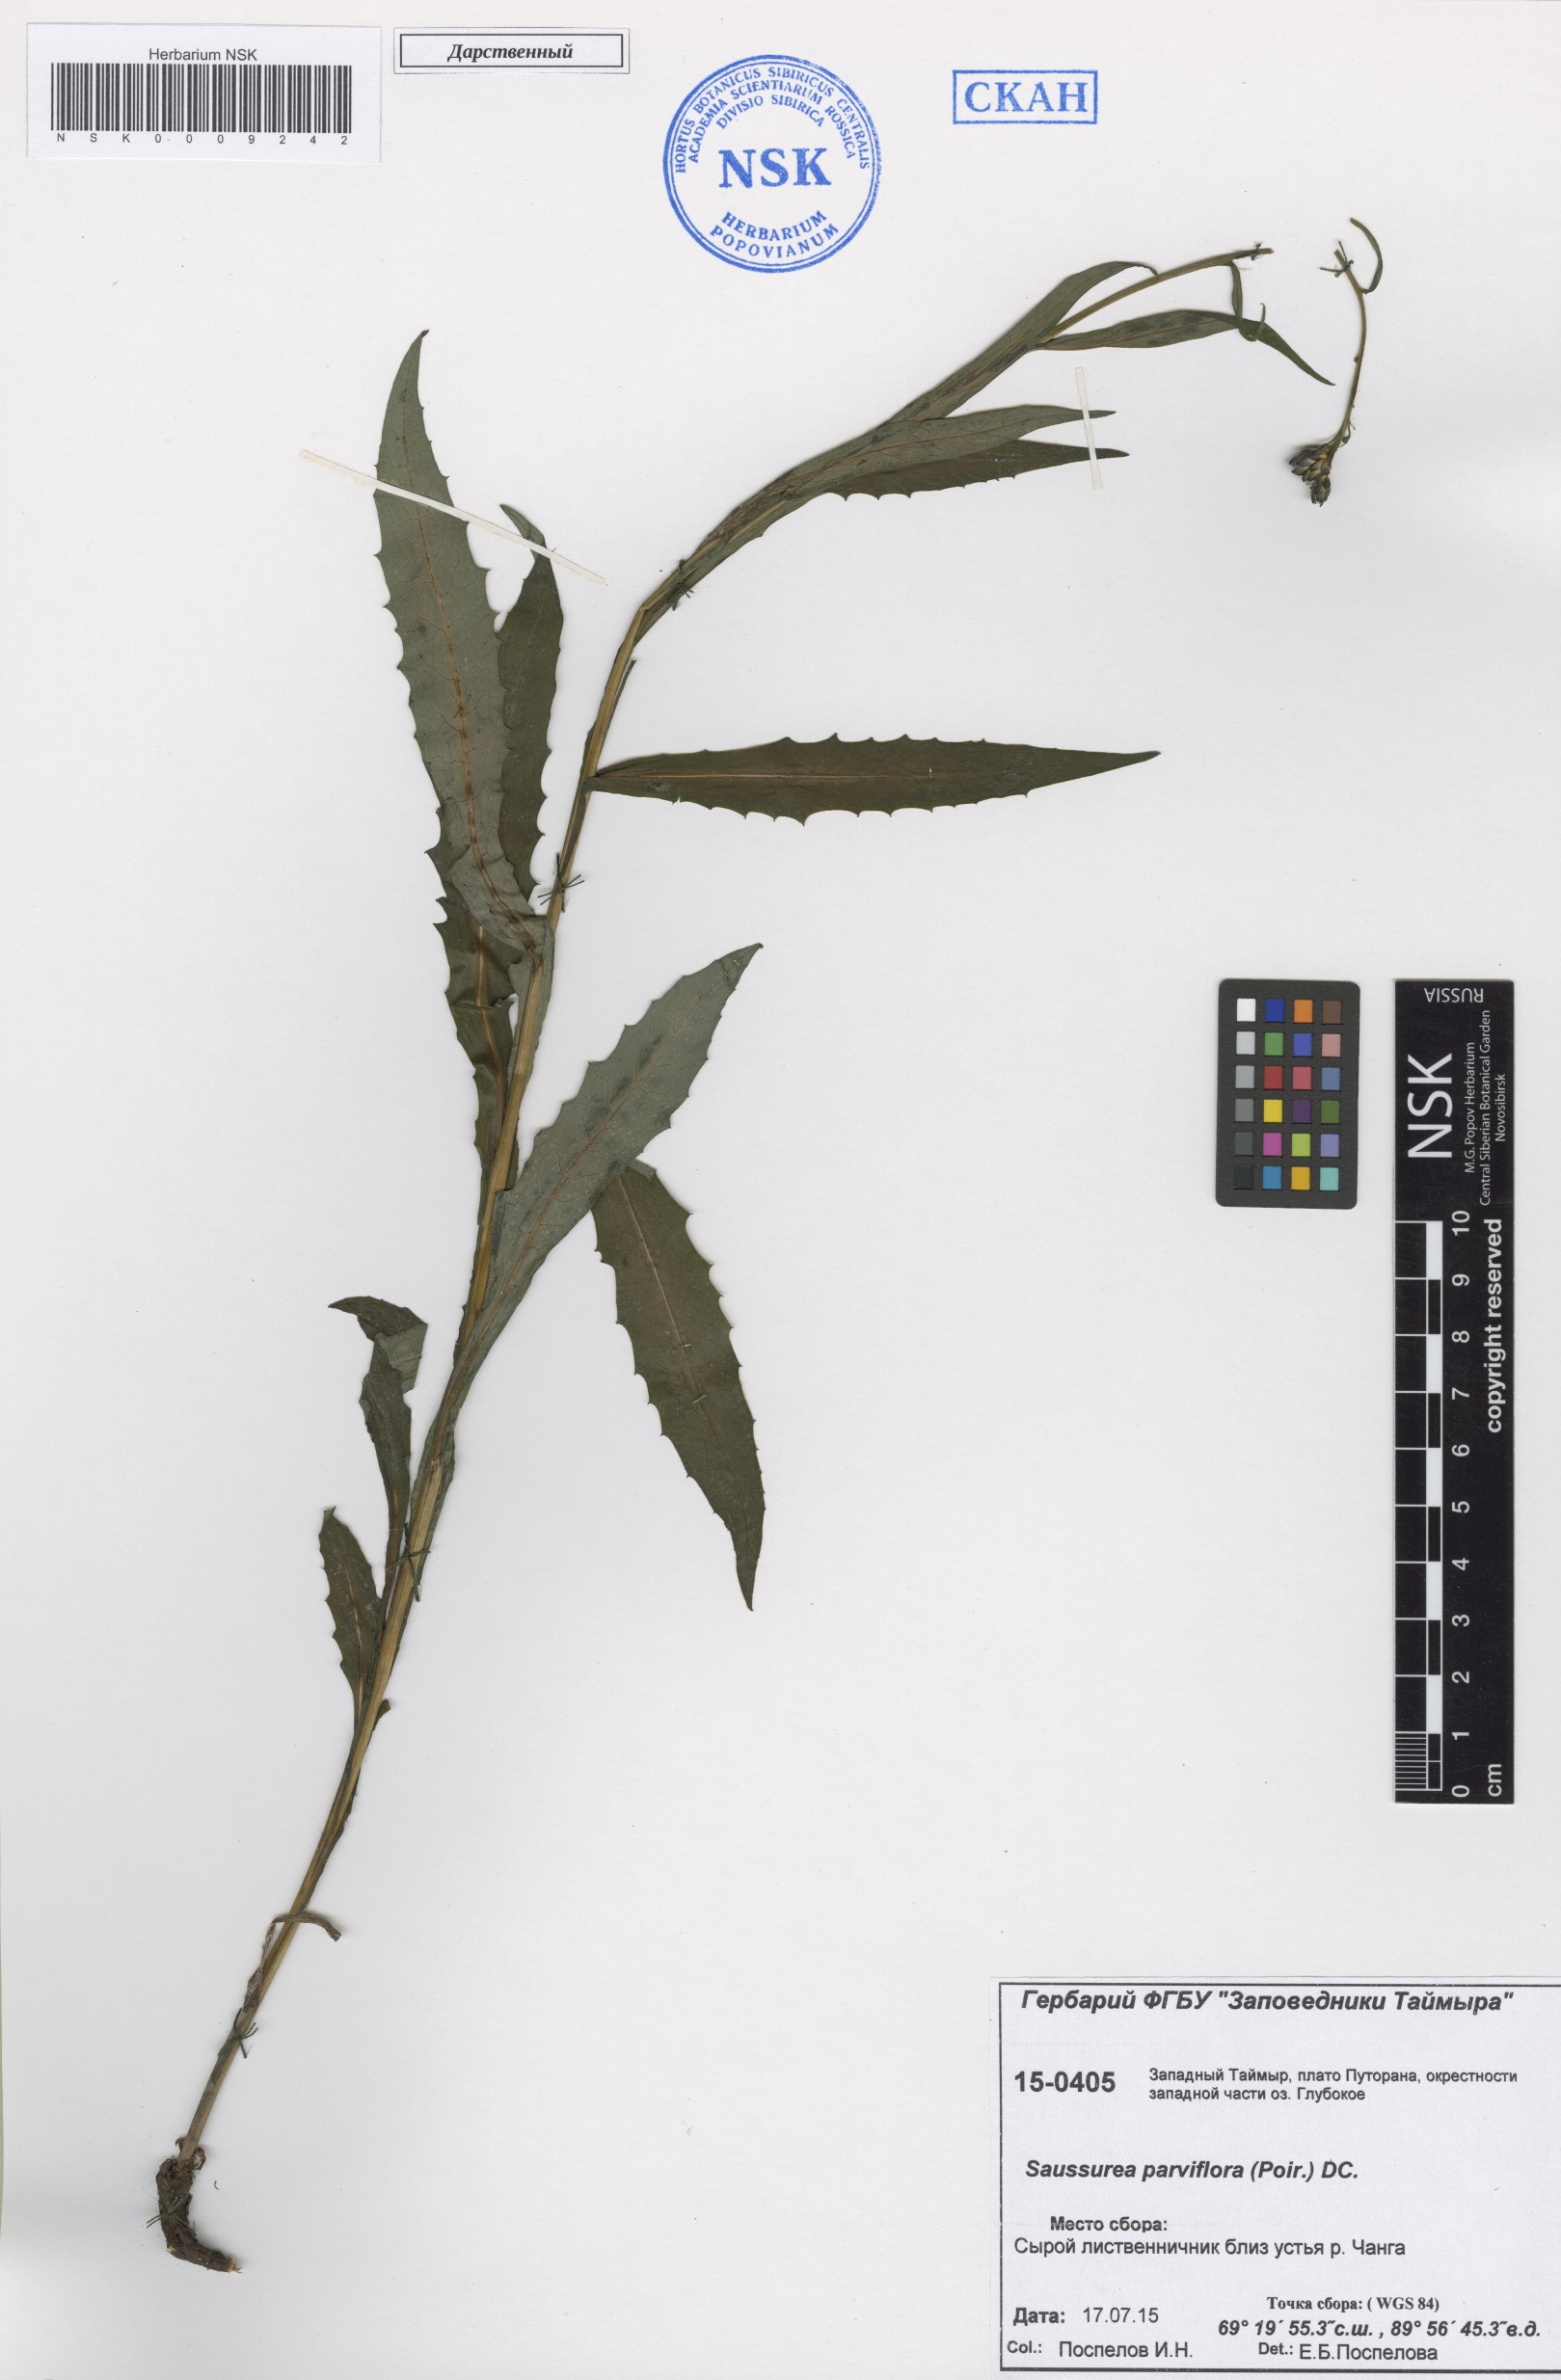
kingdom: Plantae
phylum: Tracheophyta
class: Magnoliopsida
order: Asterales
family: Asteraceae
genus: Saussurea
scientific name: Saussurea parviflora
